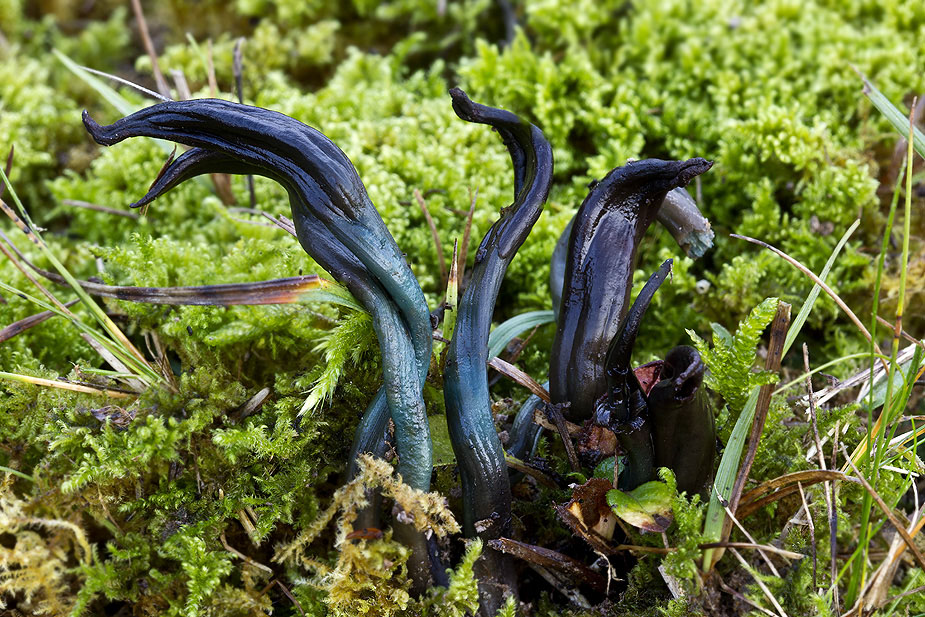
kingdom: Fungi
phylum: Ascomycota
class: Leotiomycetes
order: Leotiales
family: Leotiaceae
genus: Microglossum
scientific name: Microglossum tenebrosum
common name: turkis-farvetunge
